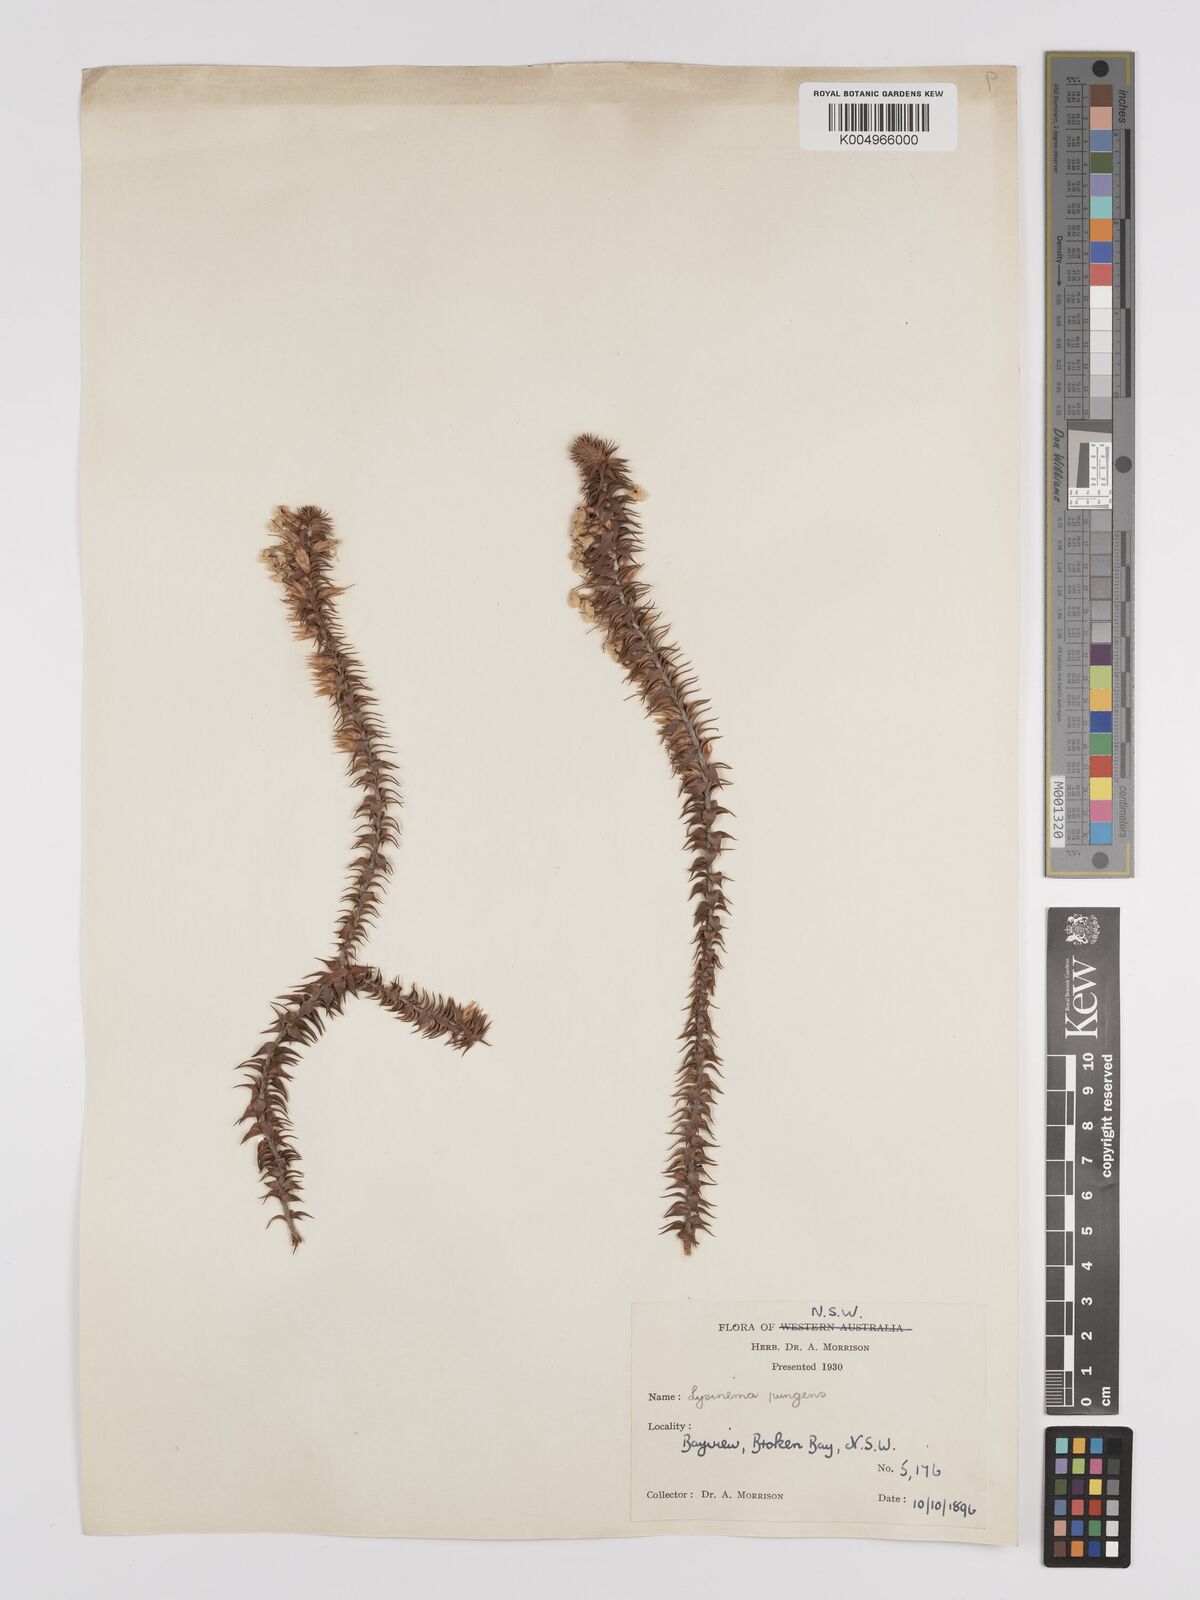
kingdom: Plantae
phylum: Tracheophyta
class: Magnoliopsida
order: Ericales
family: Ericaceae
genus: Woollsia
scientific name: Woollsia pungens
